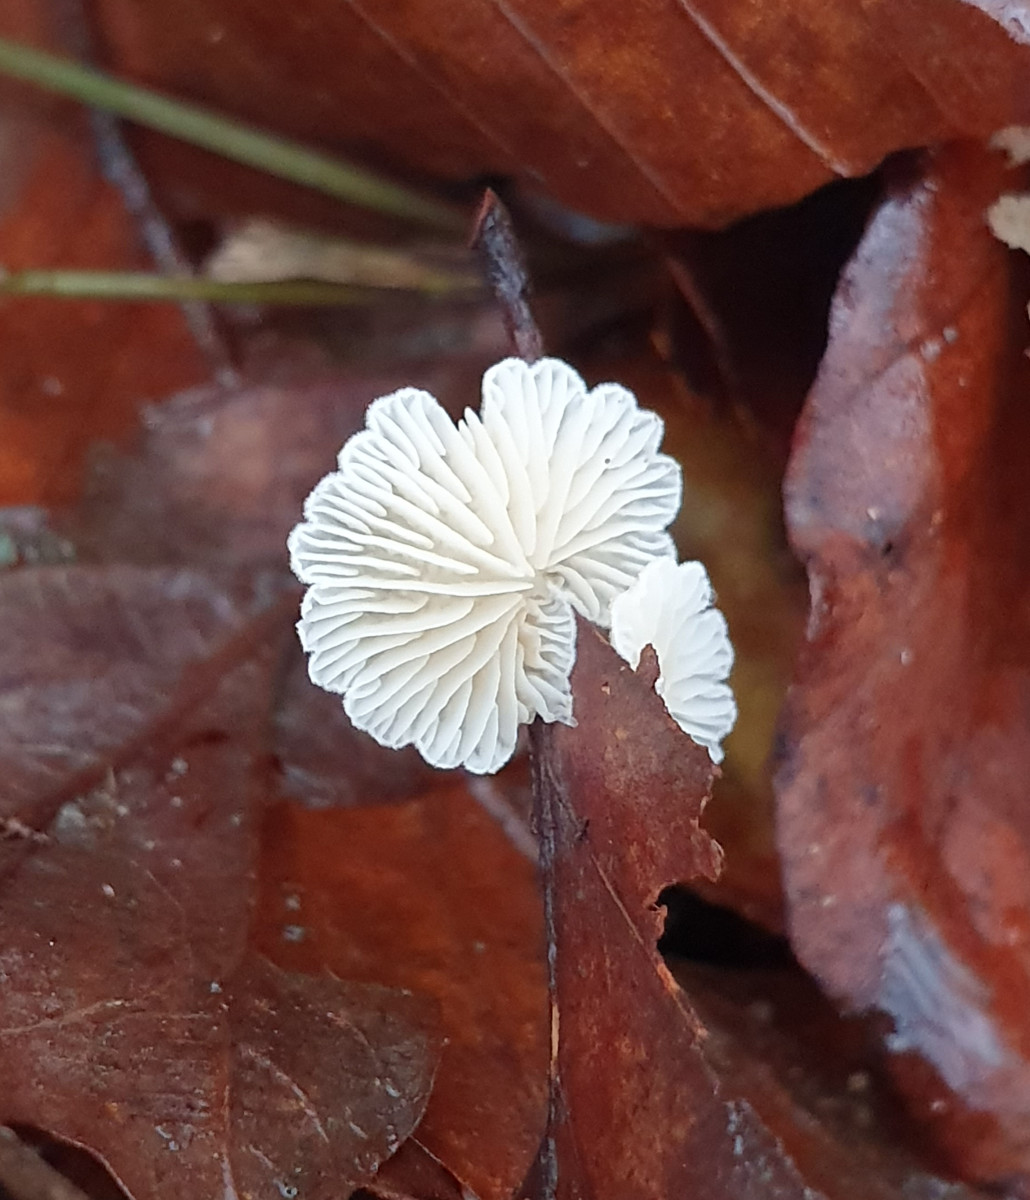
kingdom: Fungi
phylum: Basidiomycota
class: Agaricomycetes
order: Agaricales
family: Crepidotaceae
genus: Crepidotus
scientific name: Crepidotus
